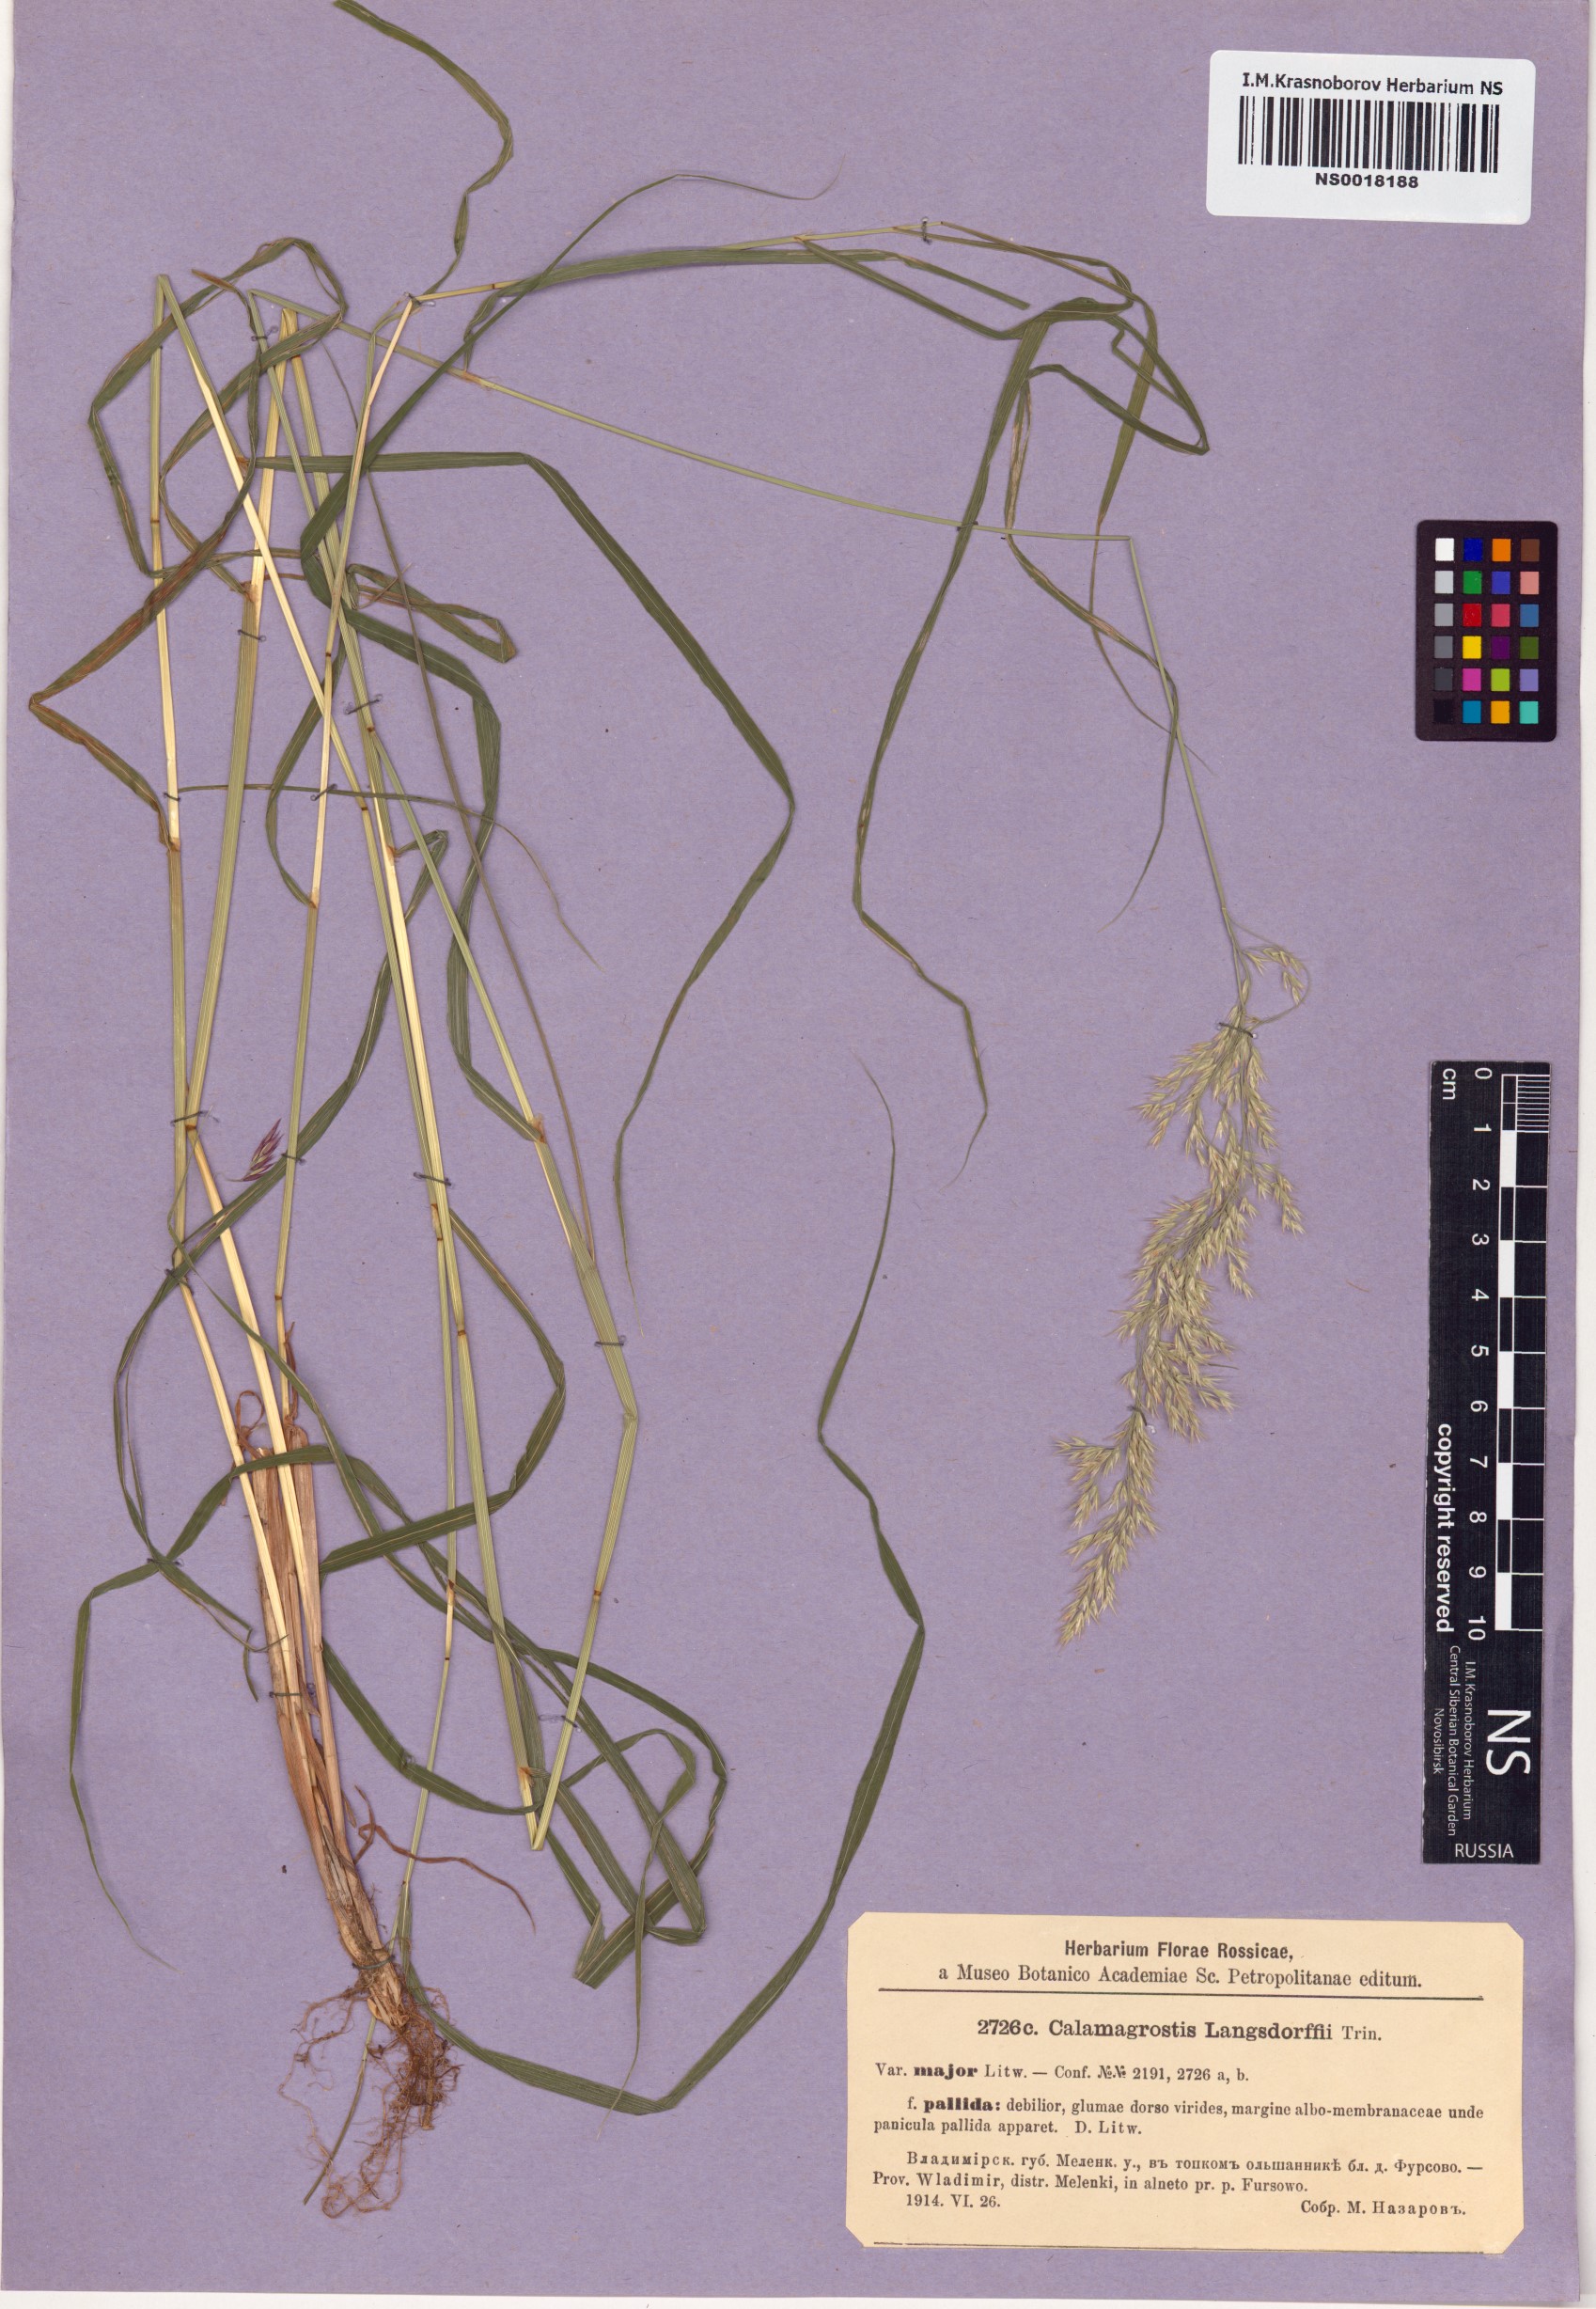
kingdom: Plantae
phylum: Tracheophyta
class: Liliopsida
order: Poales
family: Poaceae
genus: Calamagrostis
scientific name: Calamagrostis purpurea
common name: Scandinavian small-reed
